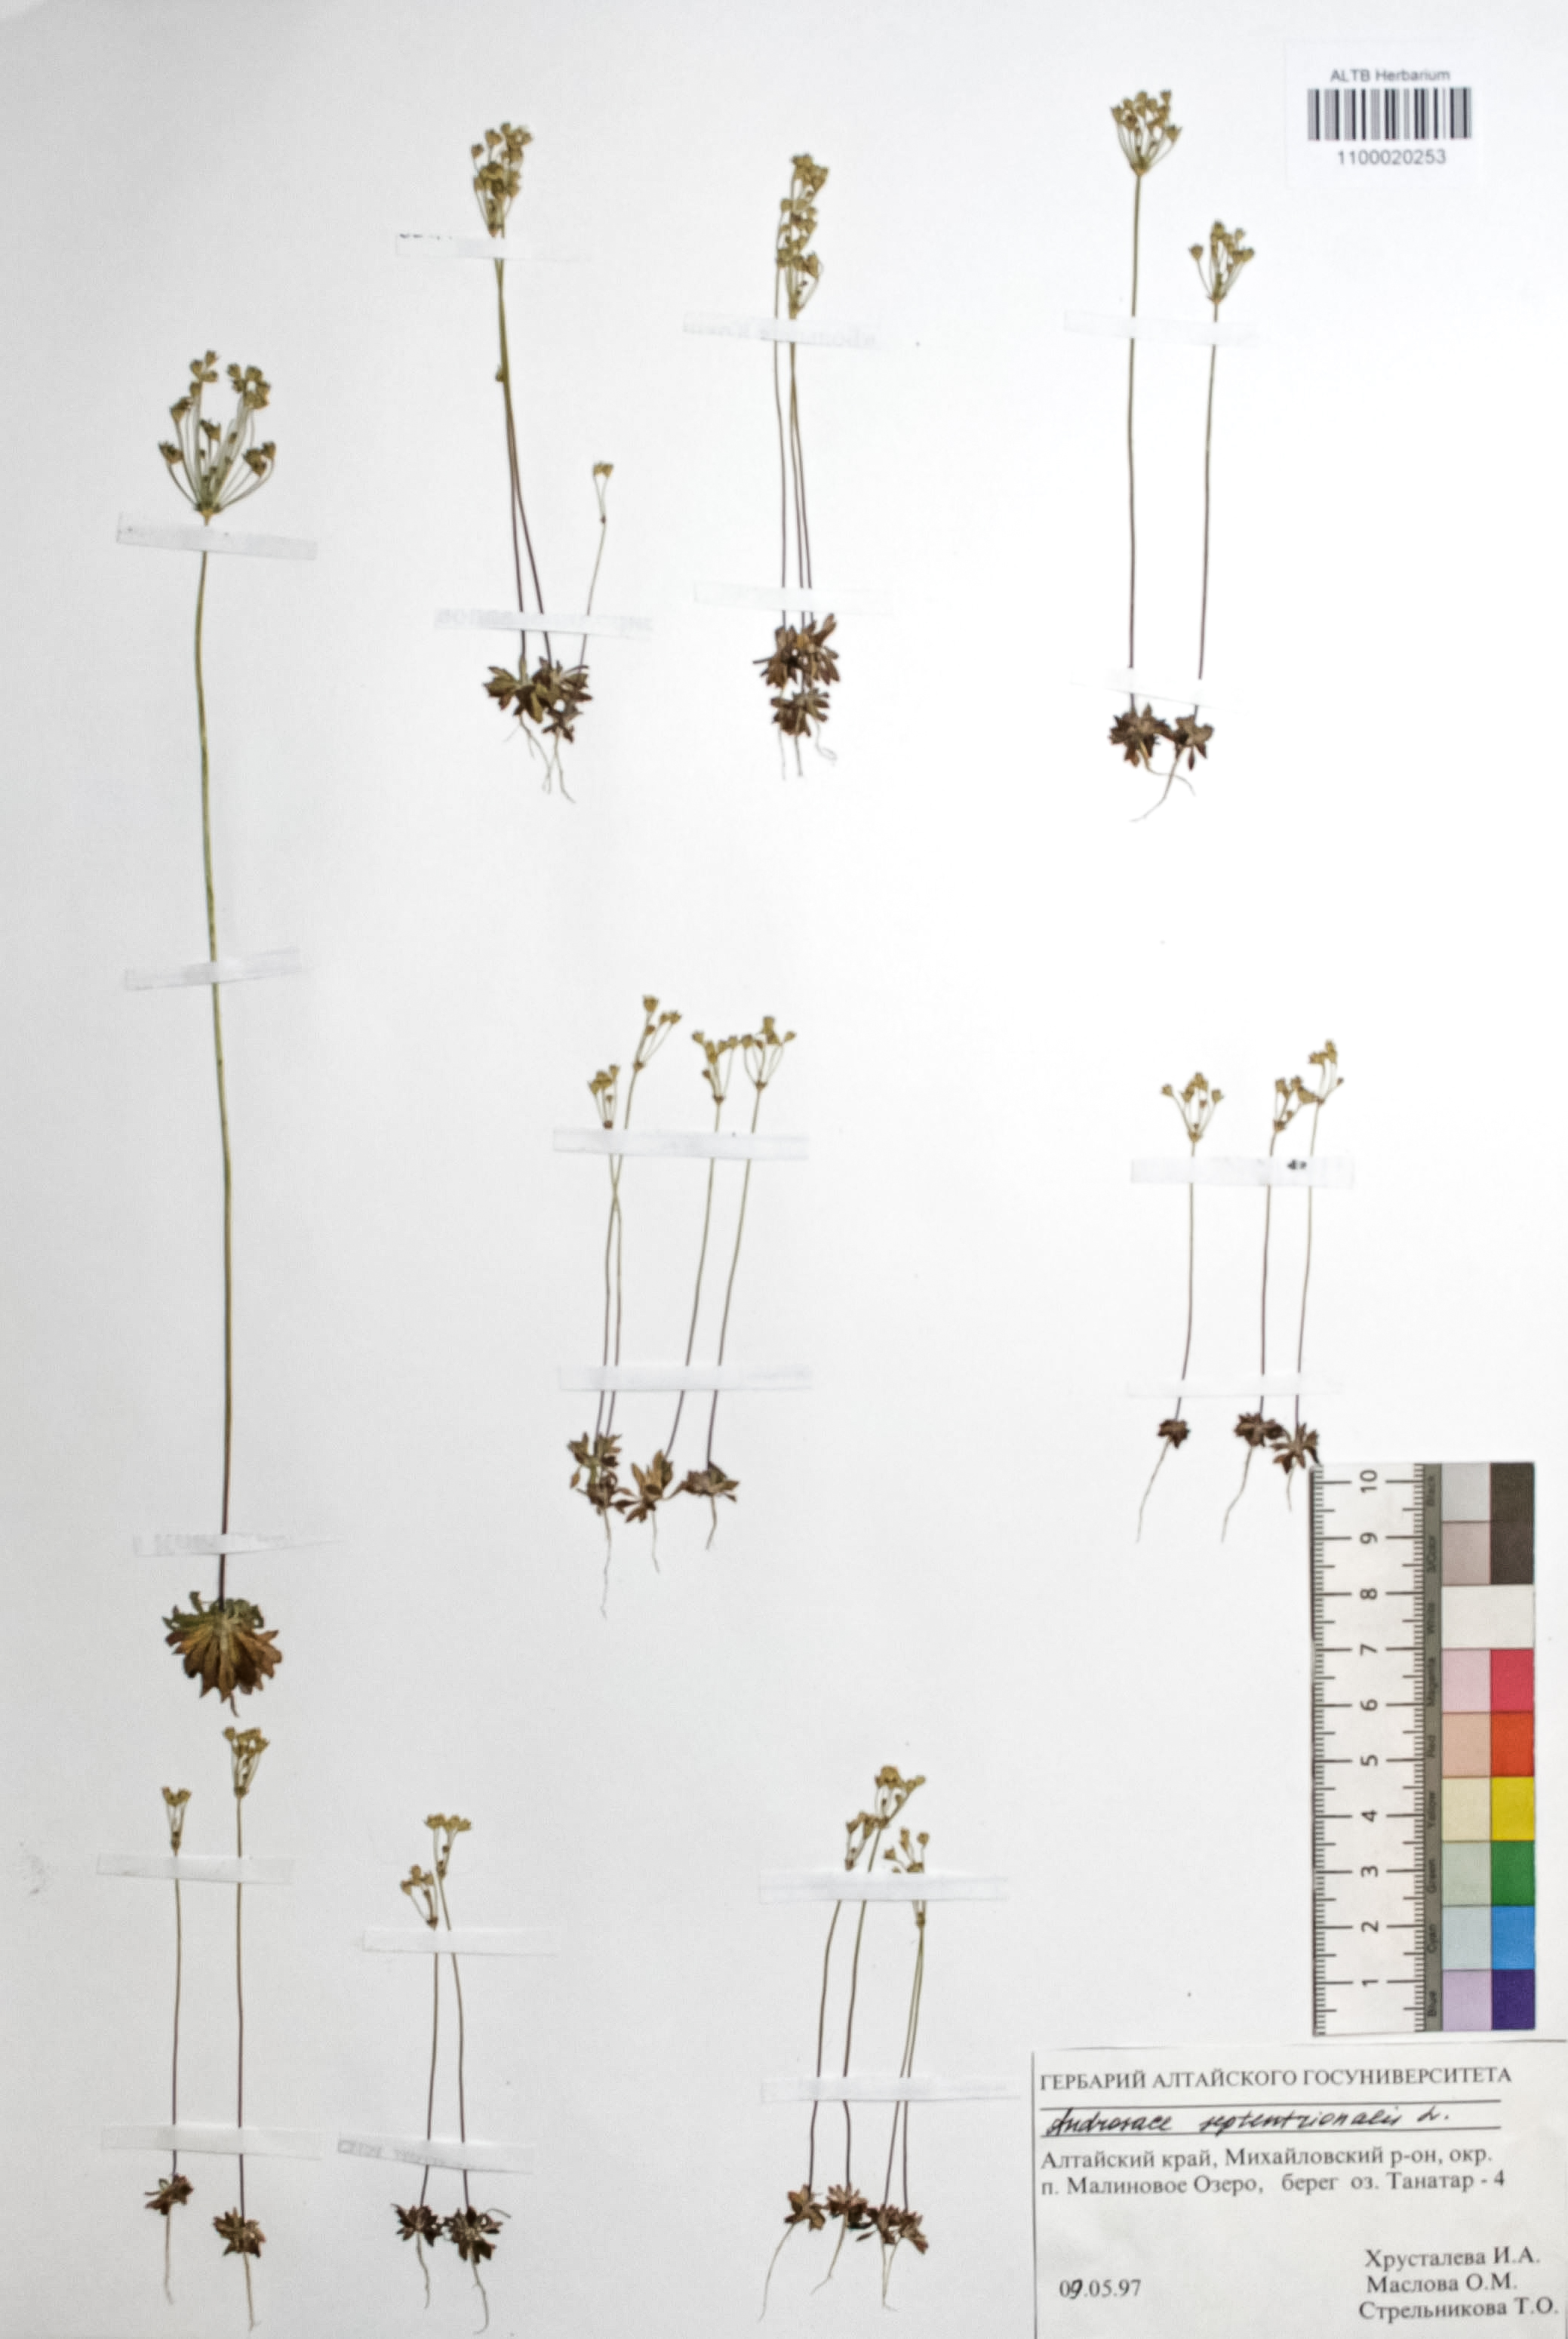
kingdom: Plantae
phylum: Tracheophyta
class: Magnoliopsida
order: Ericales
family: Primulaceae
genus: Androsace
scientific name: Androsace septentrionalis
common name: Hairy northern fairy-candelabra
